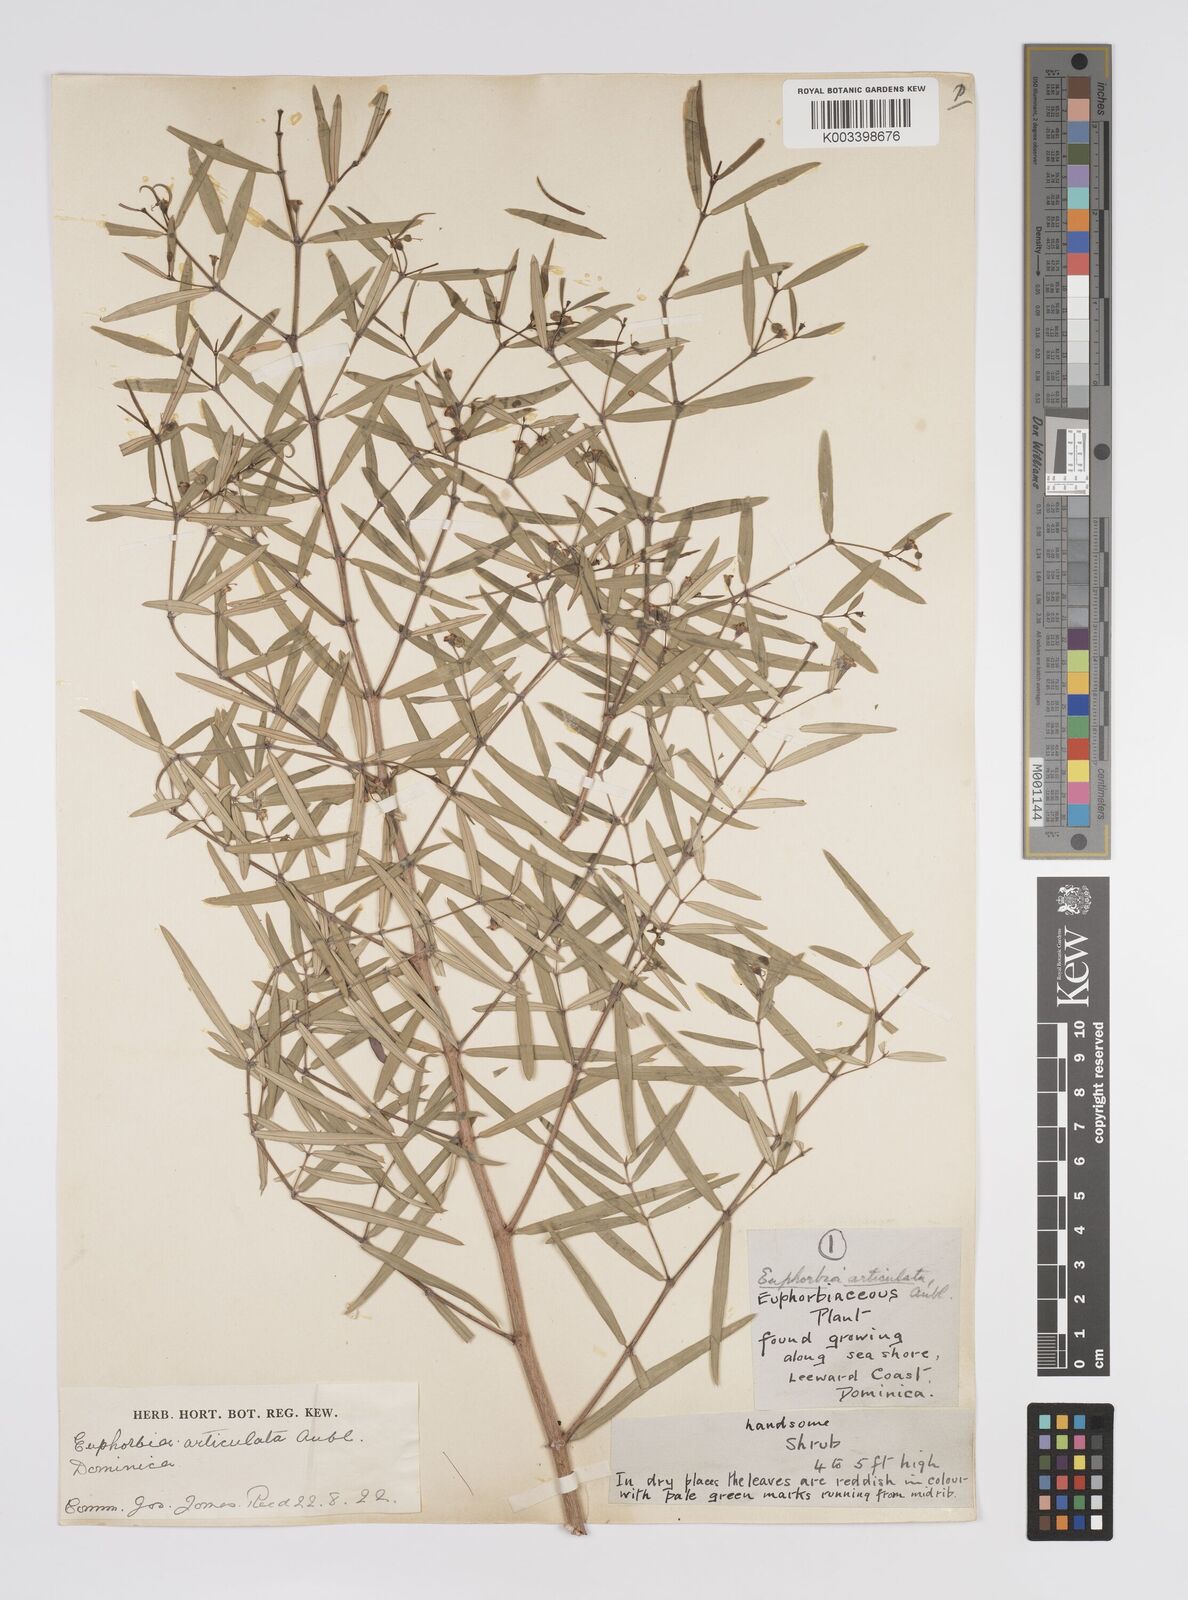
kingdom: Plantae
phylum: Tracheophyta
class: Magnoliopsida
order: Malpighiales
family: Euphorbiaceae
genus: Euphorbia
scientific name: Euphorbia articulata
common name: Jointed sandmat
